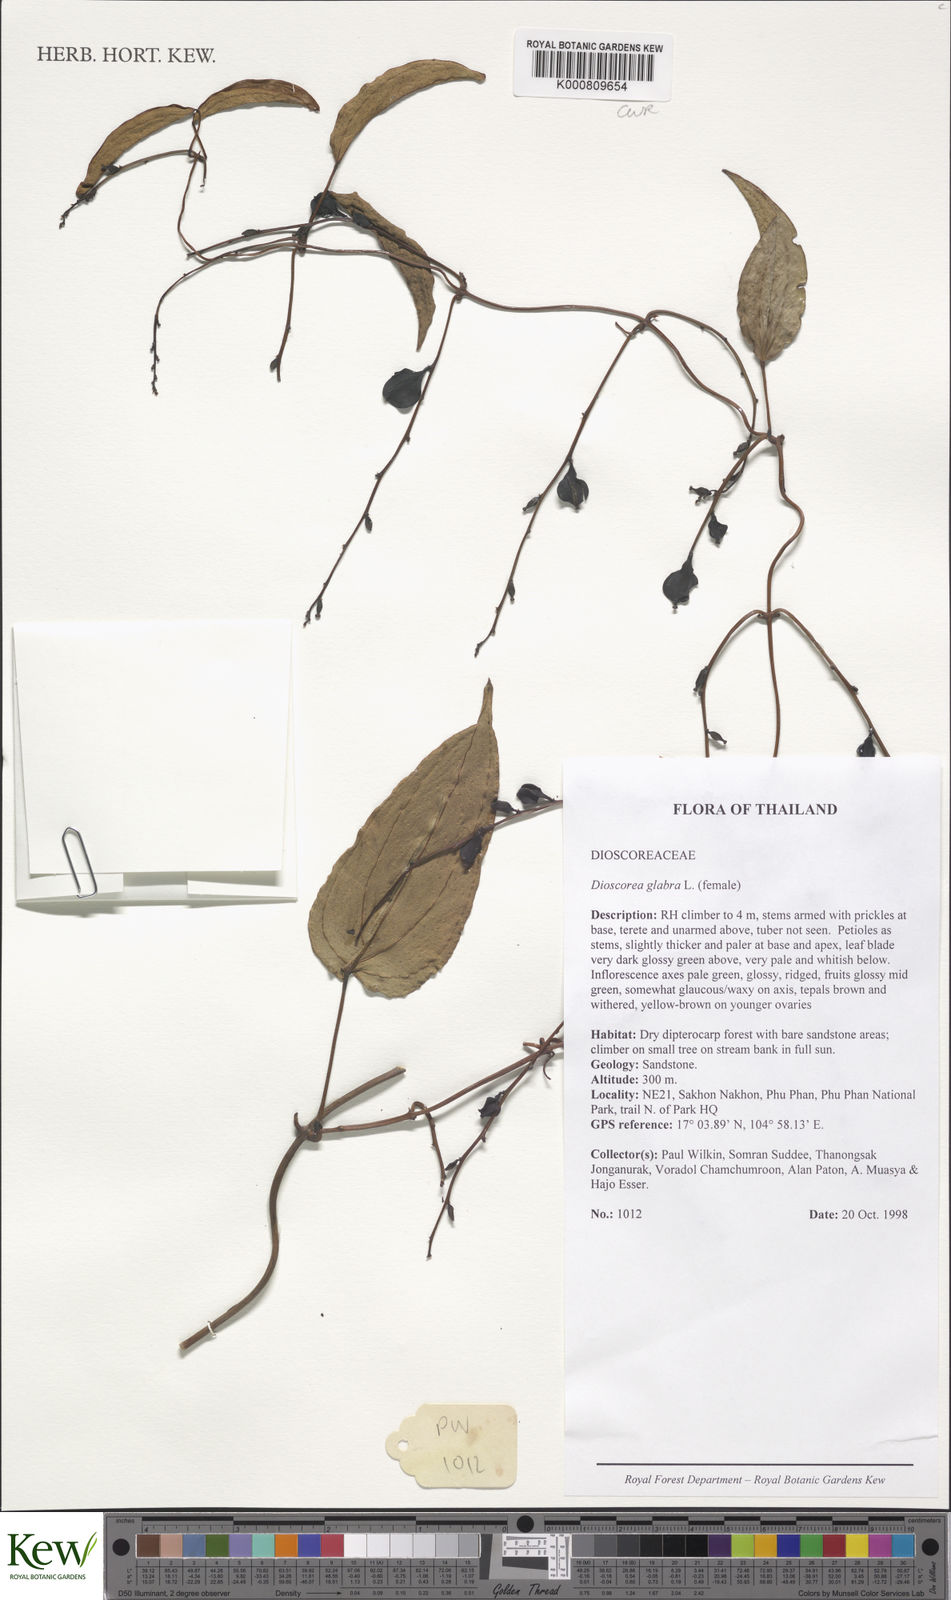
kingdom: Plantae
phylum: Tracheophyta
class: Liliopsida
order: Dioscoreales
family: Dioscoreaceae
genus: Dioscorea
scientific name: Dioscorea glabra
